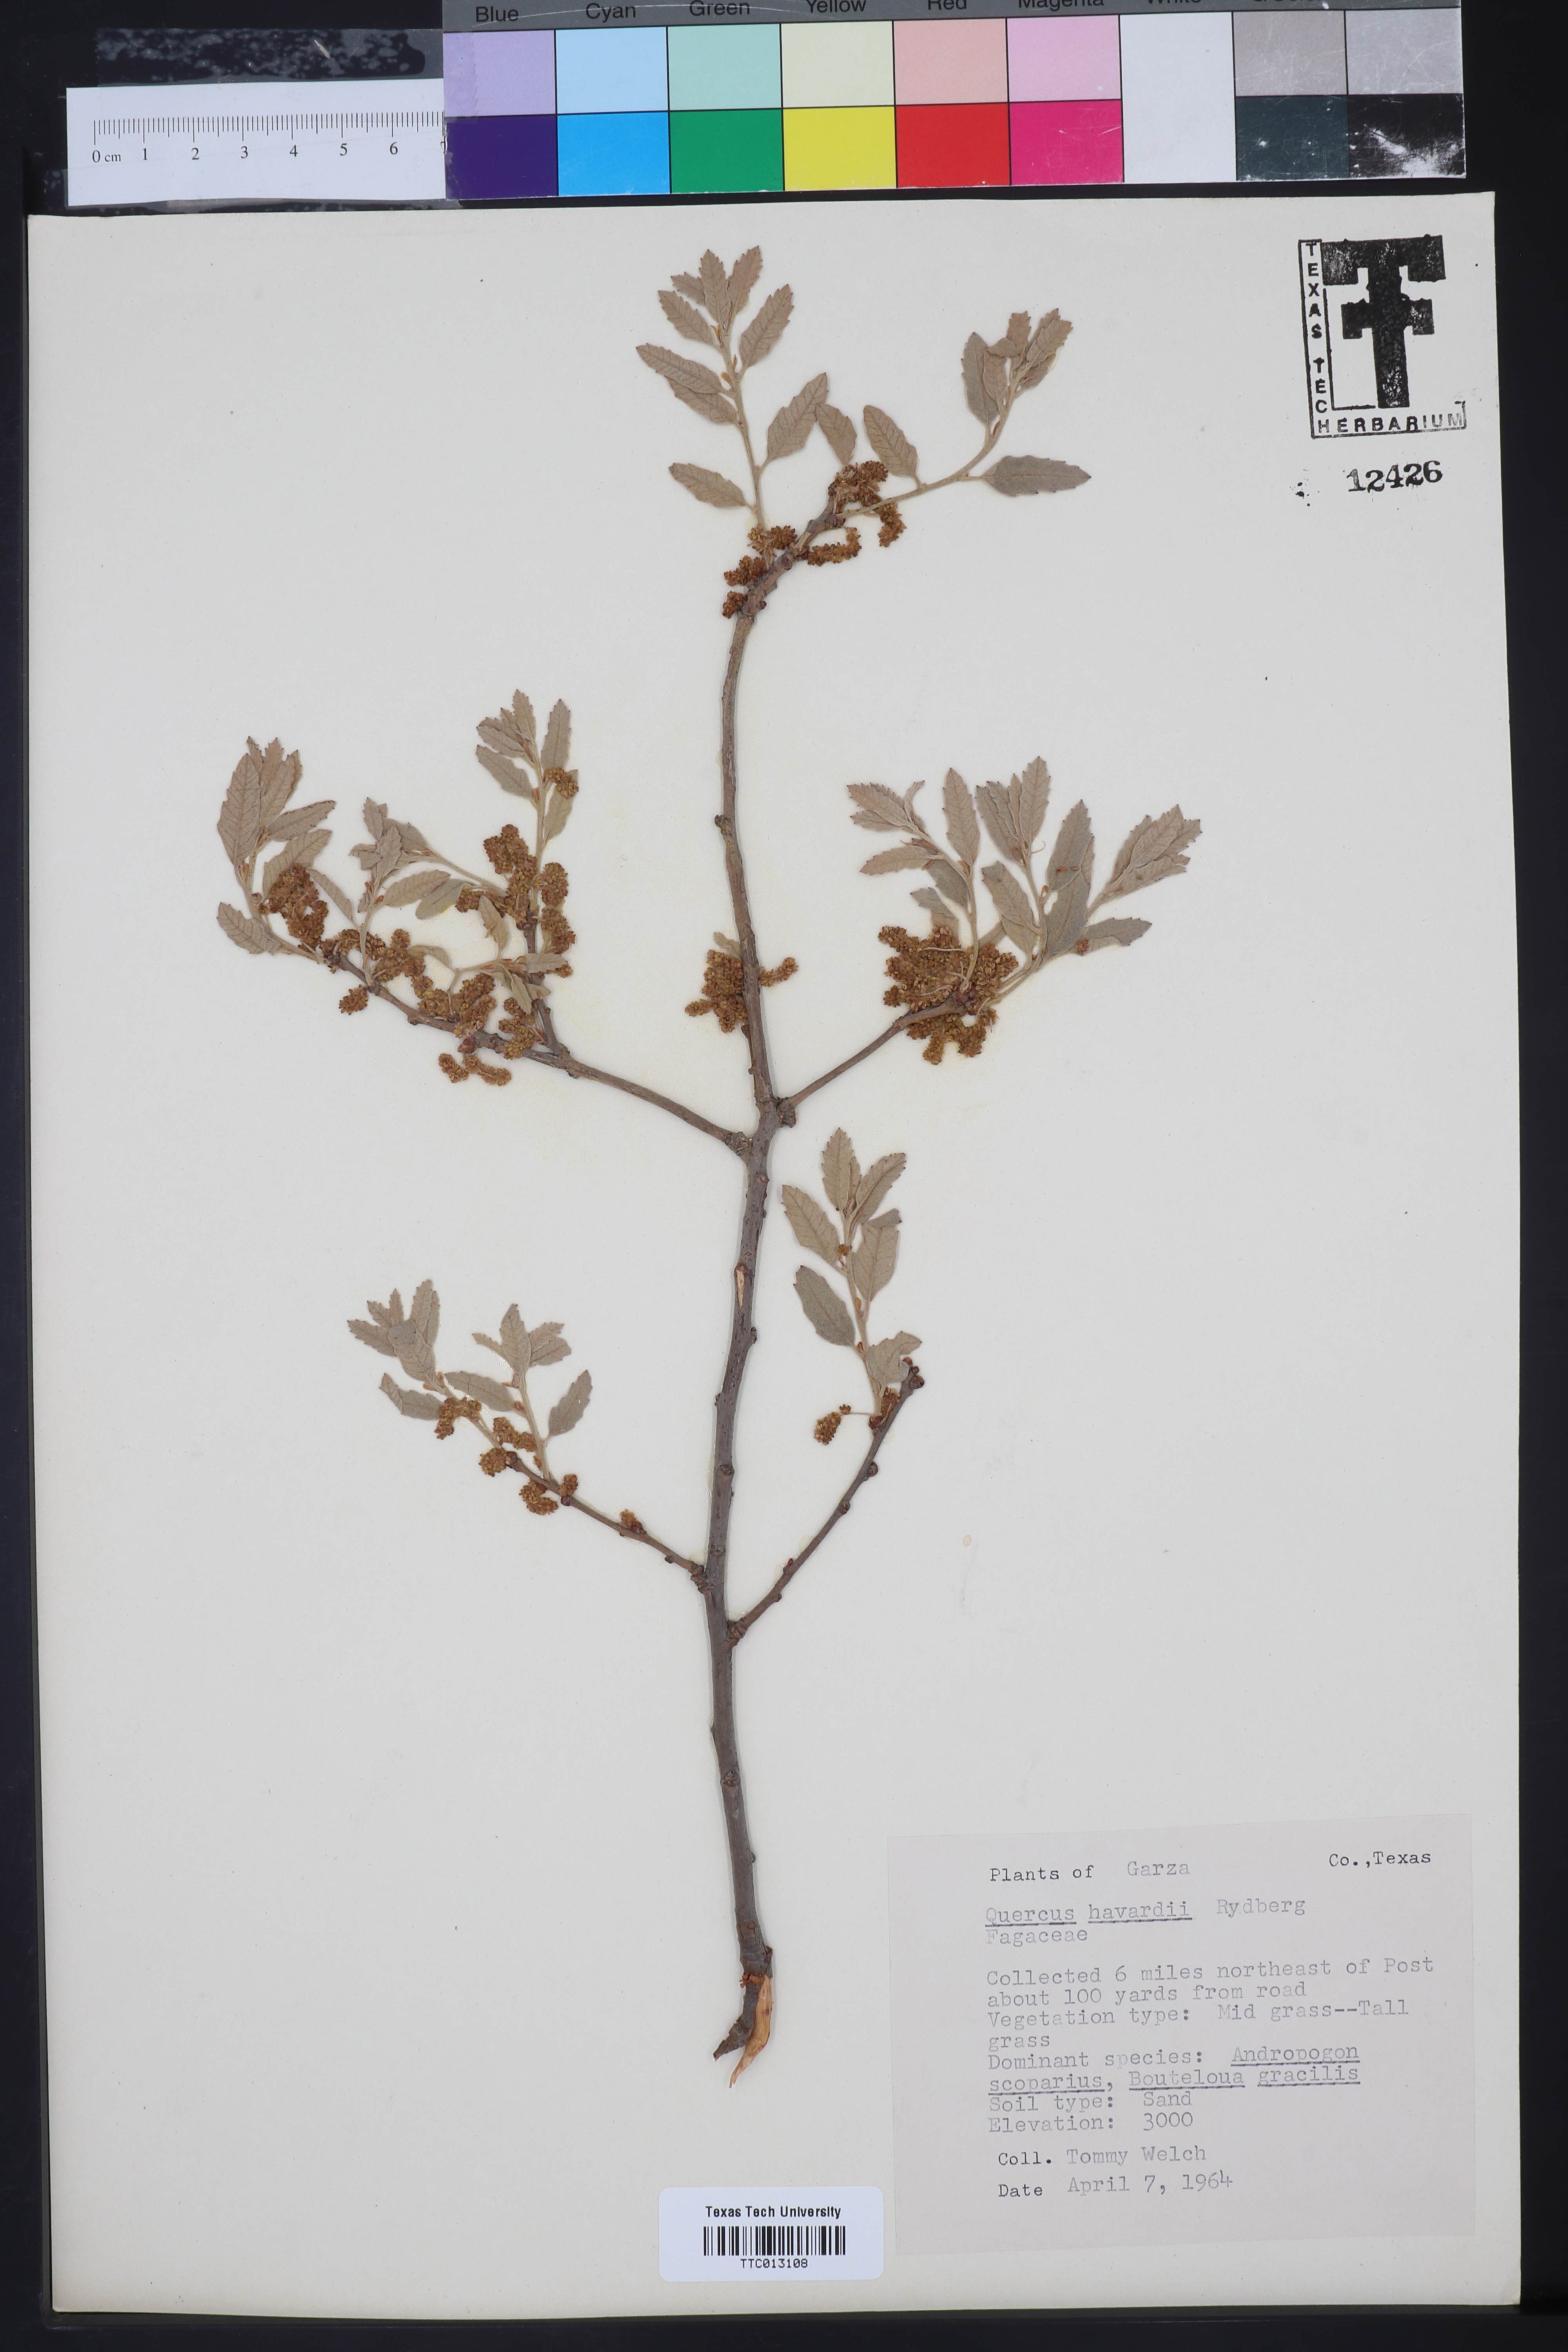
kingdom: Plantae
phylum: Tracheophyta
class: Magnoliopsida
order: Fagales
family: Fagaceae
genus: Quercus
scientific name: Quercus havardii
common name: Shinnery oak
